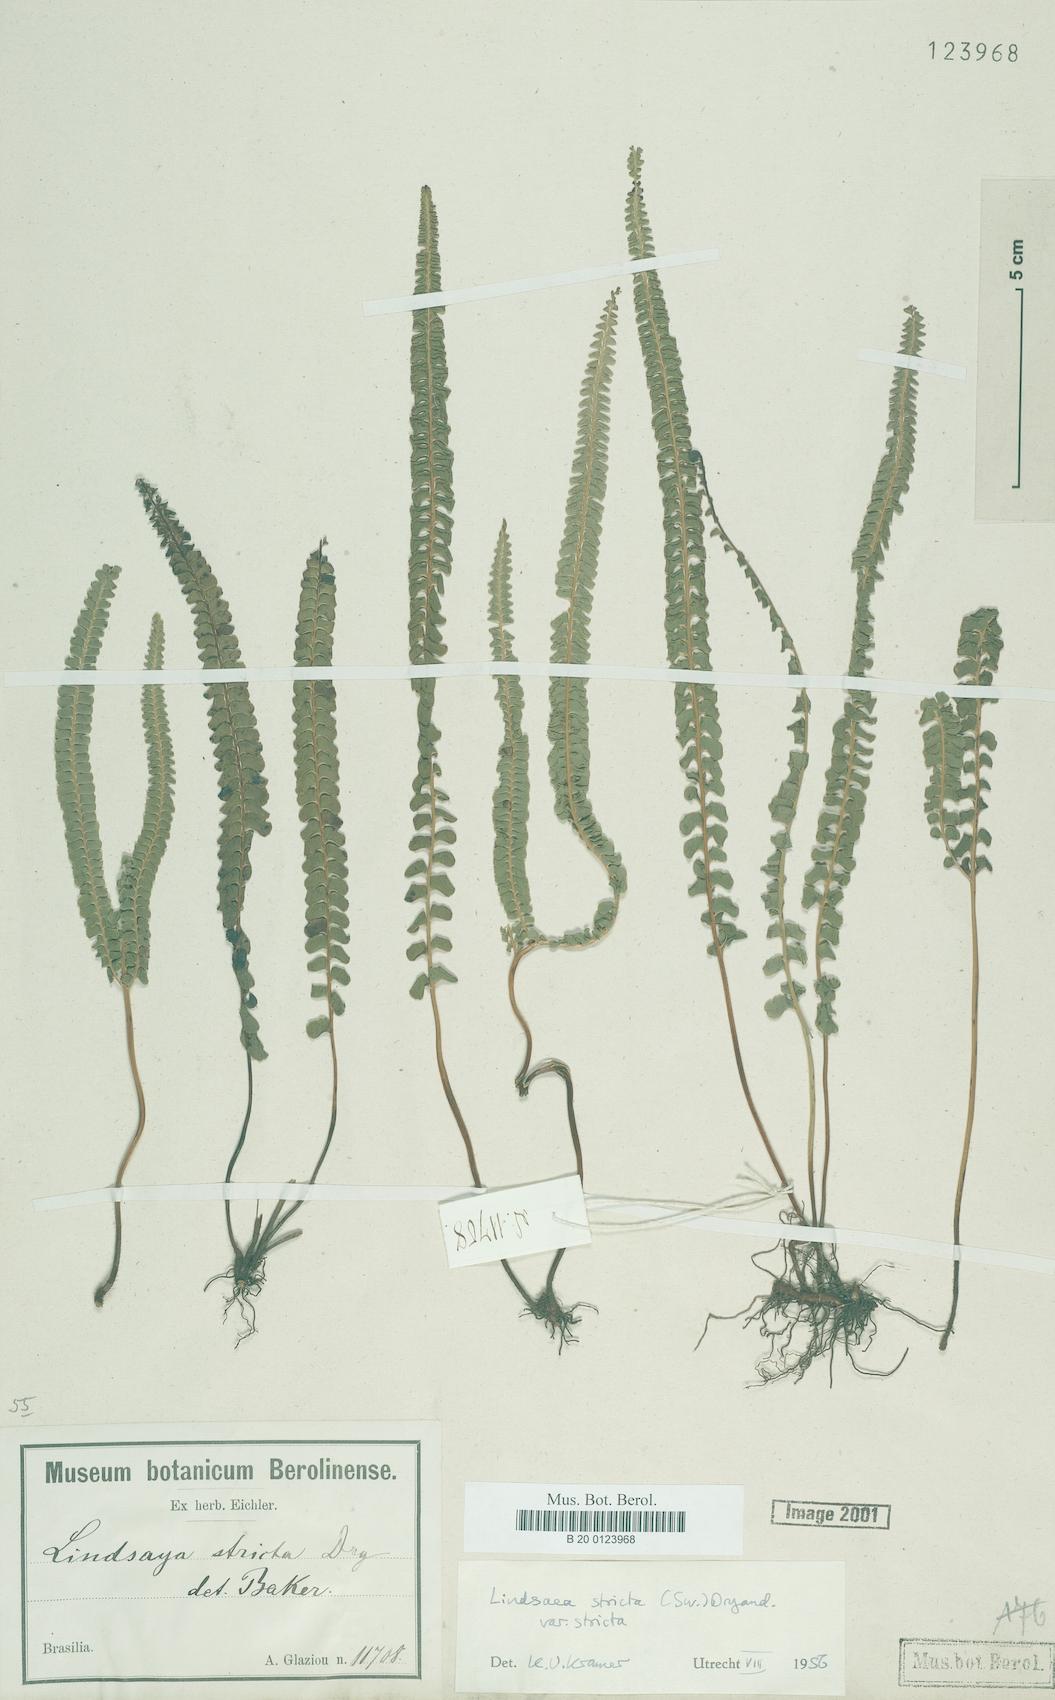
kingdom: Plantae
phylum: Tracheophyta
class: Polypodiopsida
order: Polypodiales
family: Lindsaeaceae
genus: Lindsaea
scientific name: Lindsaea stricta
